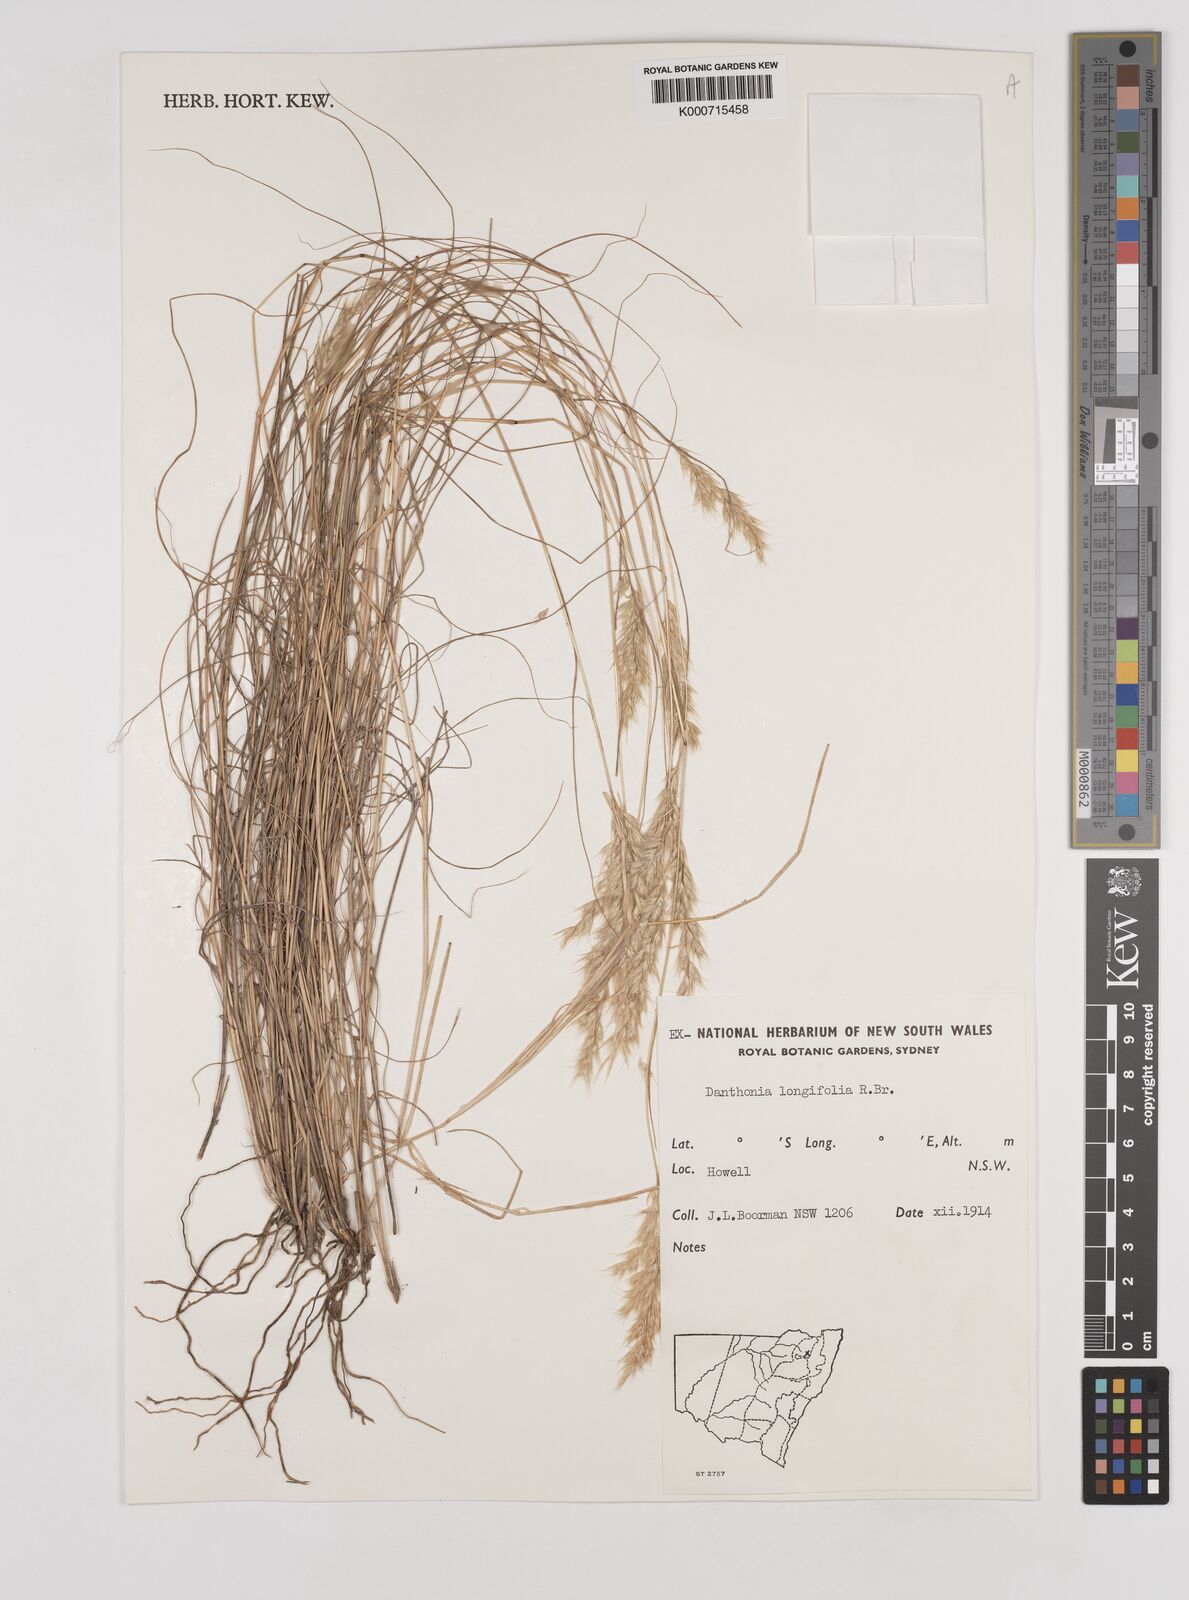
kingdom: Plantae
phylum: Tracheophyta
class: Liliopsida
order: Poales
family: Poaceae
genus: Rytidosperma
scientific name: Rytidosperma longifolium
